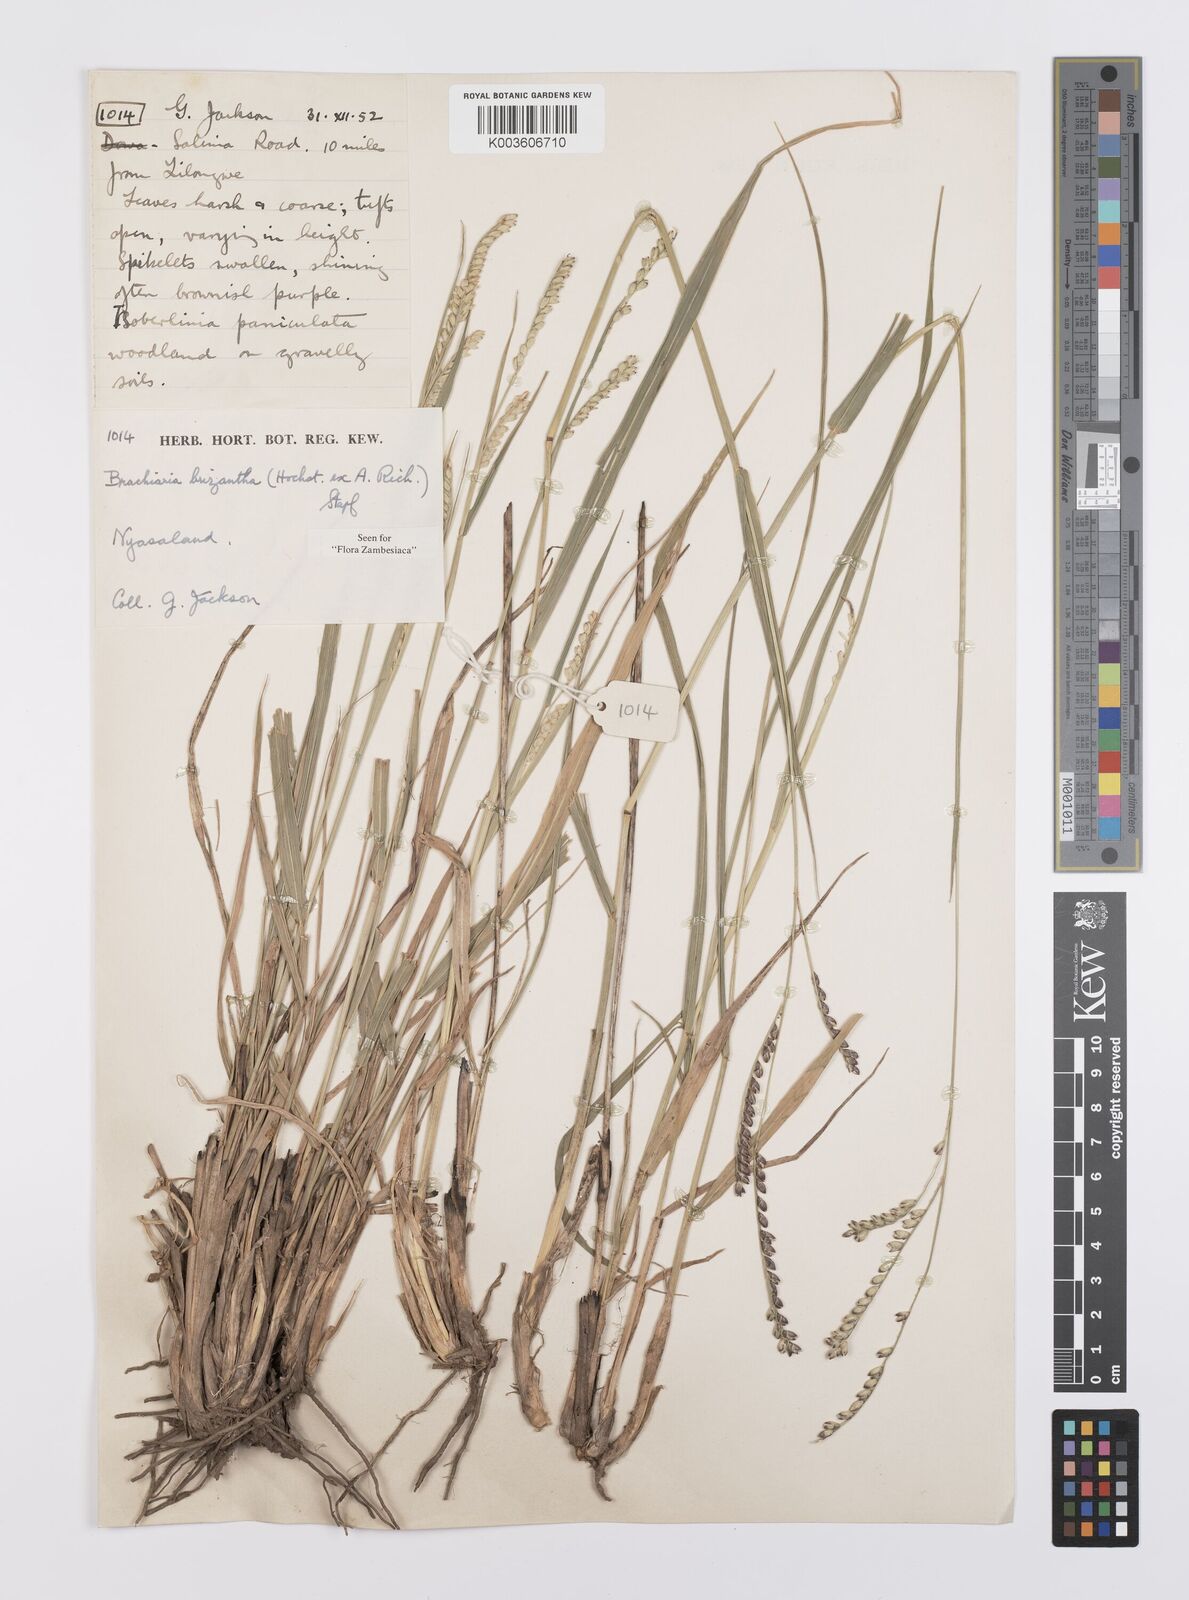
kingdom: Plantae
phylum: Tracheophyta
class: Liliopsida
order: Poales
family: Poaceae
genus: Urochloa
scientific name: Urochloa brizantha
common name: Palisade signalgrass
